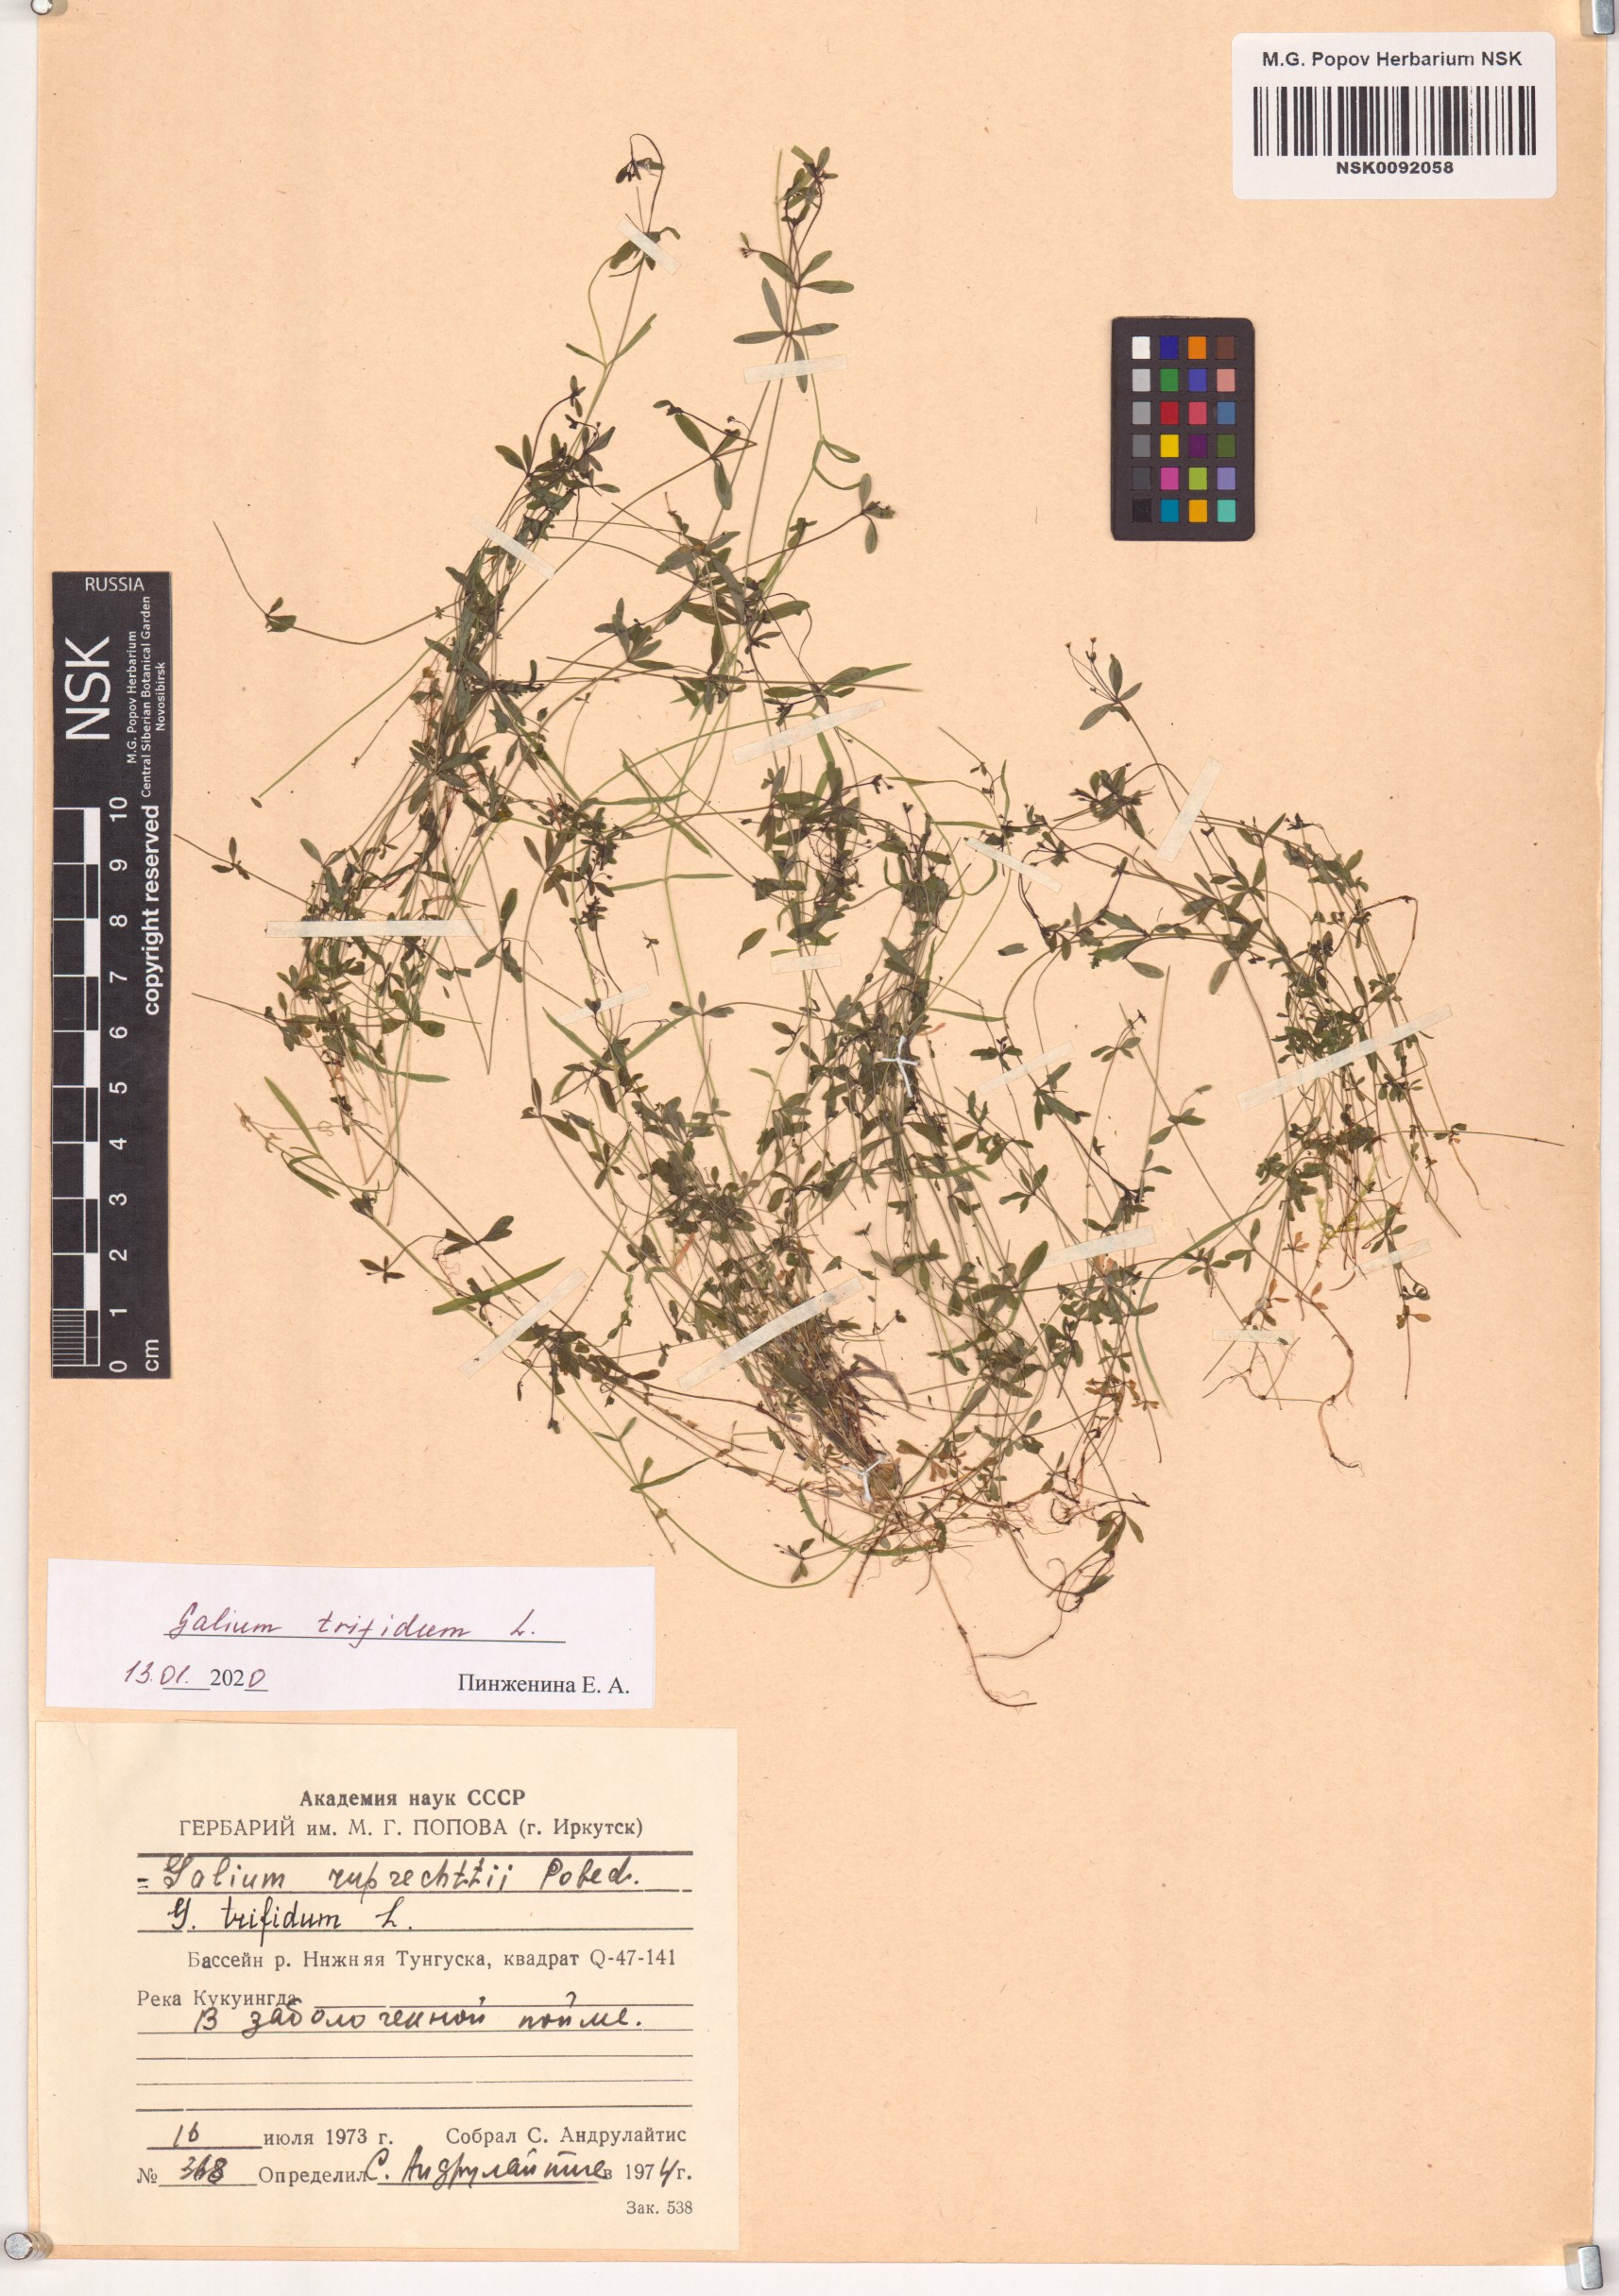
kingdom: Plantae
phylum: Tracheophyta
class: Magnoliopsida
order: Gentianales
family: Rubiaceae
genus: Galium
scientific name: Galium trifidum
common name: Small bedstraw
